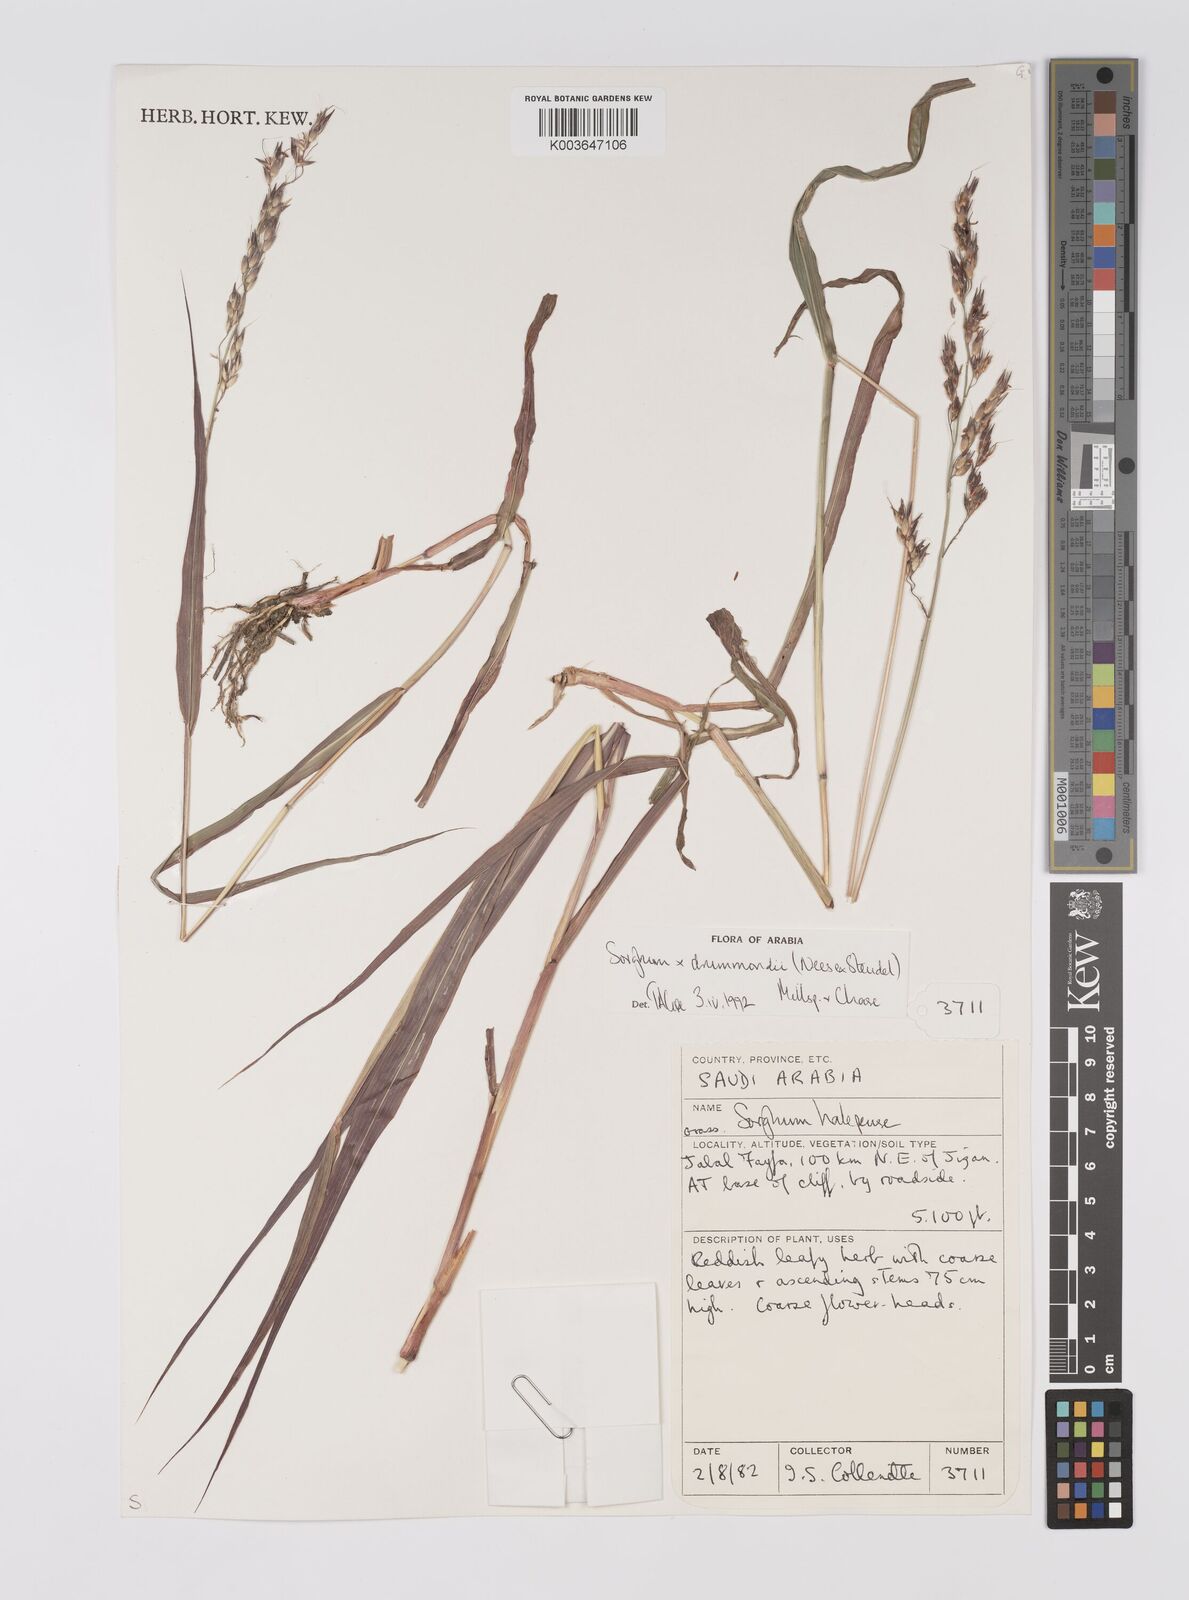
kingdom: Plantae
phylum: Tracheophyta
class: Liliopsida
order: Poales
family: Poaceae
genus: Sorghum
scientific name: Sorghum drummondii
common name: Sudangrass
